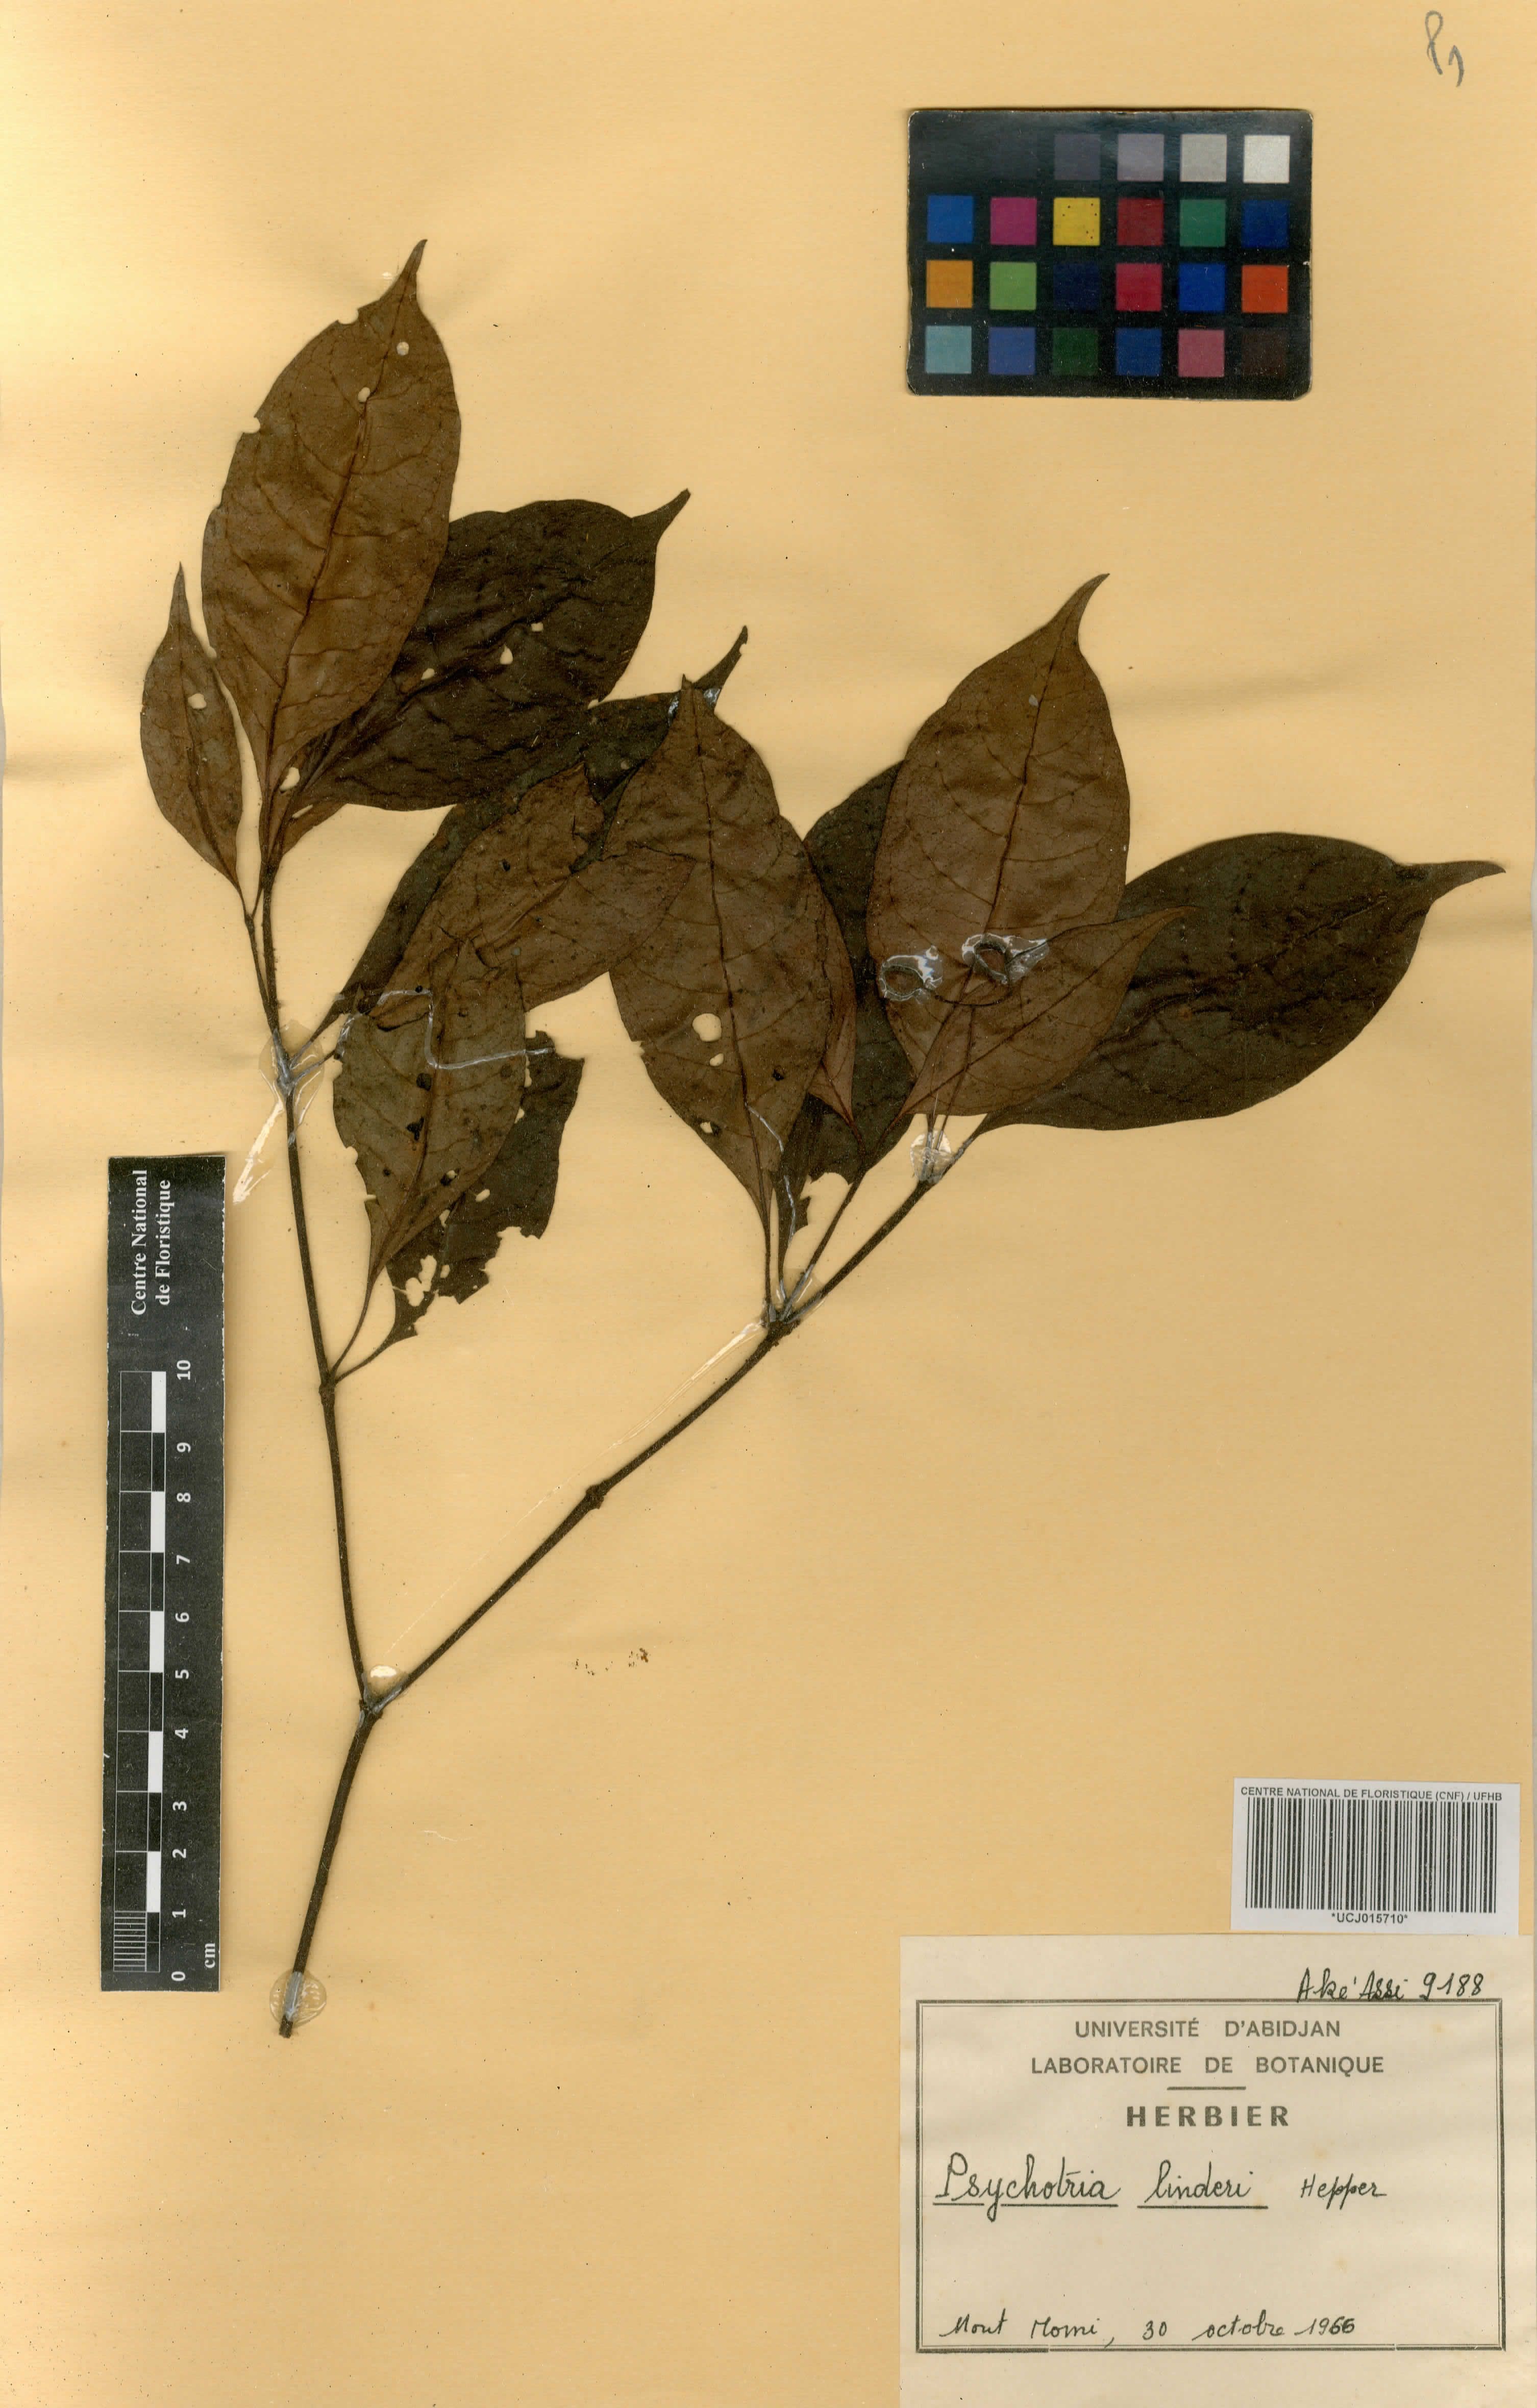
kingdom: Plantae
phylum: Tracheophyta
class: Magnoliopsida
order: Gentianales
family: Rubiaceae
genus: Psychotria
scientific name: Psychotria linderi
